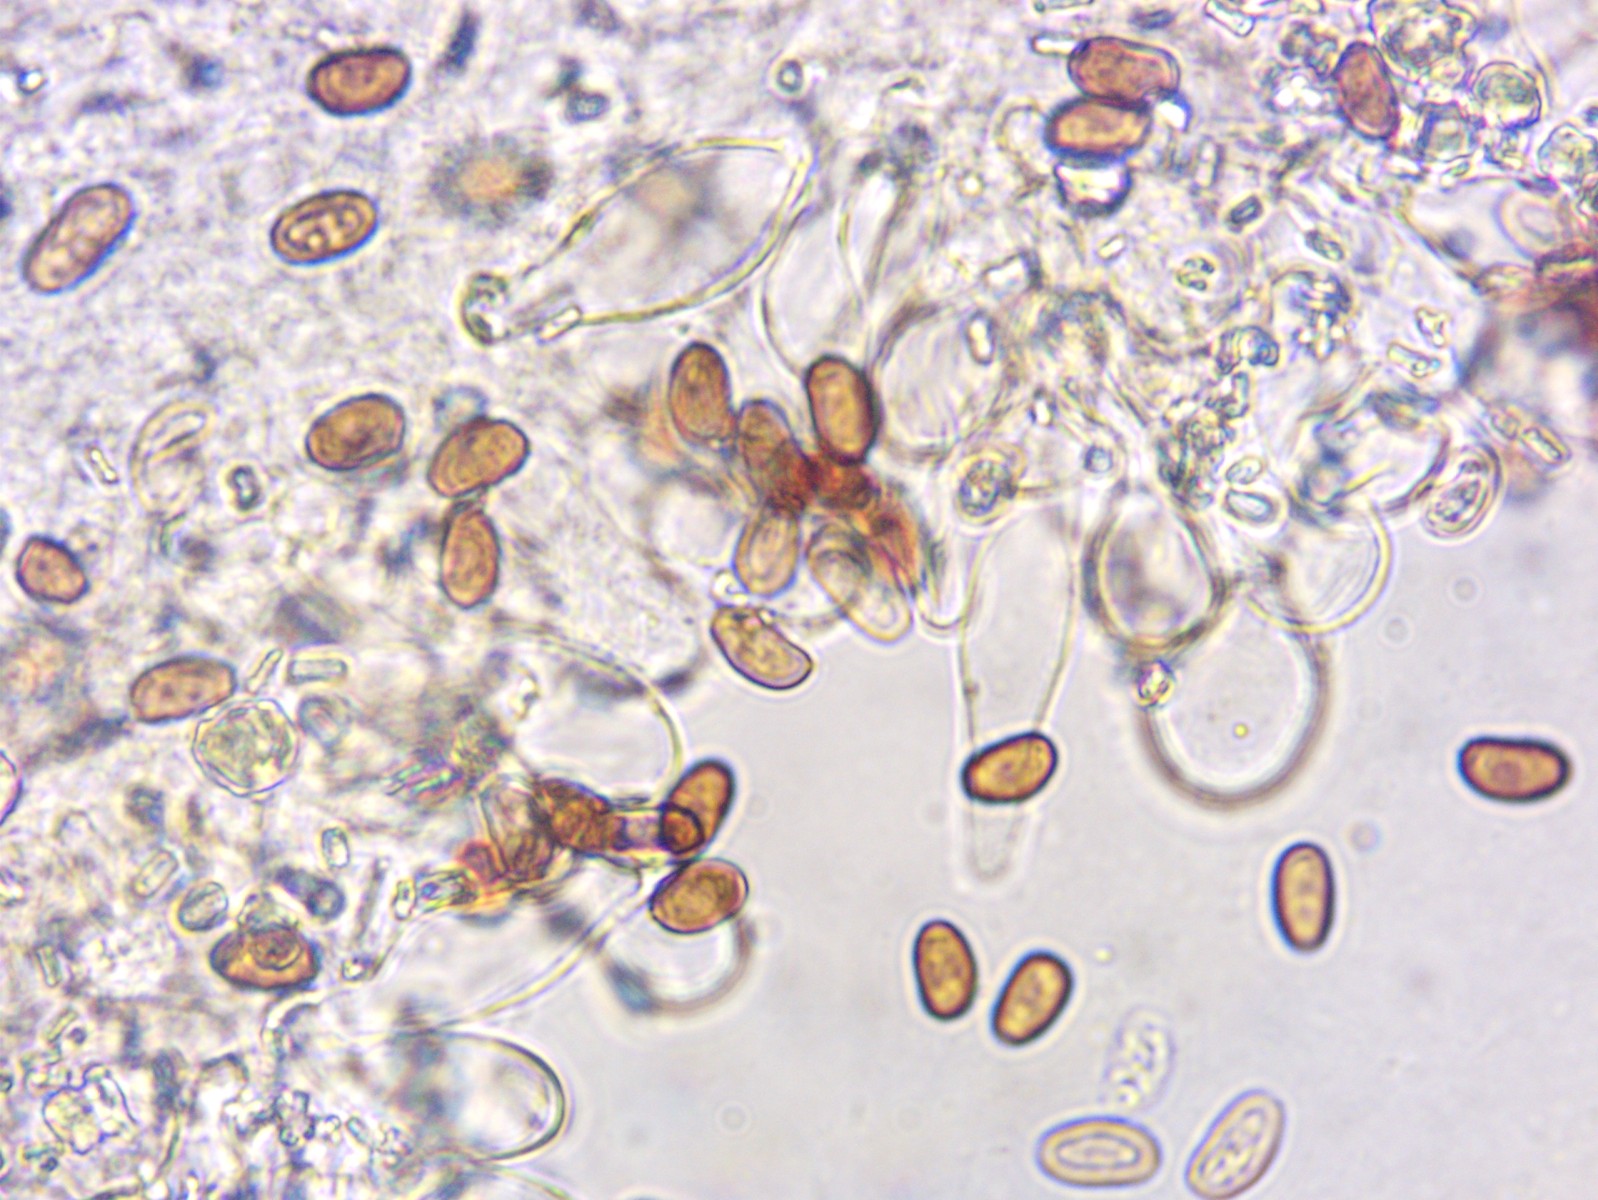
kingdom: Fungi
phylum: Basidiomycota
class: Agaricomycetes
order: Agaricales
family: Psathyrellaceae
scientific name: Psathyrellaceae
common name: mørkhatfamilien
